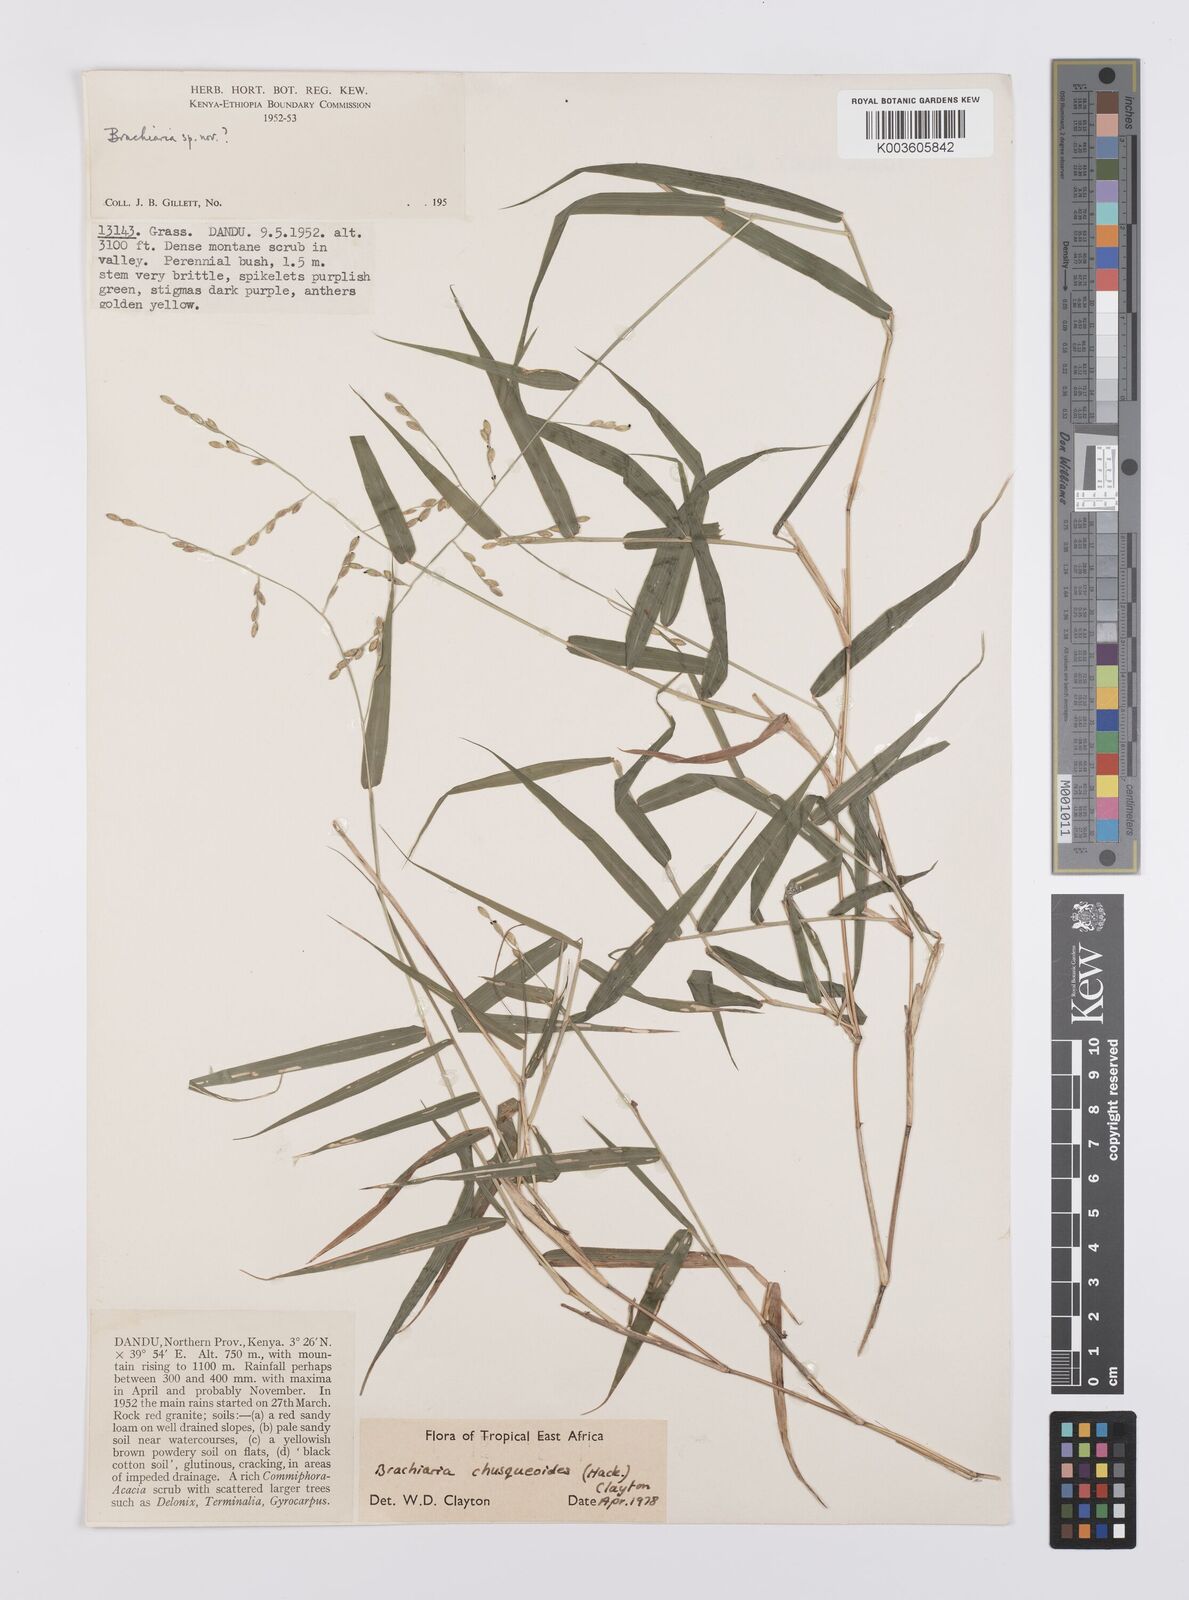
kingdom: Plantae
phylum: Tracheophyta
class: Liliopsida
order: Poales
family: Poaceae
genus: Urochloa
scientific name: Urochloa chusqueoides
